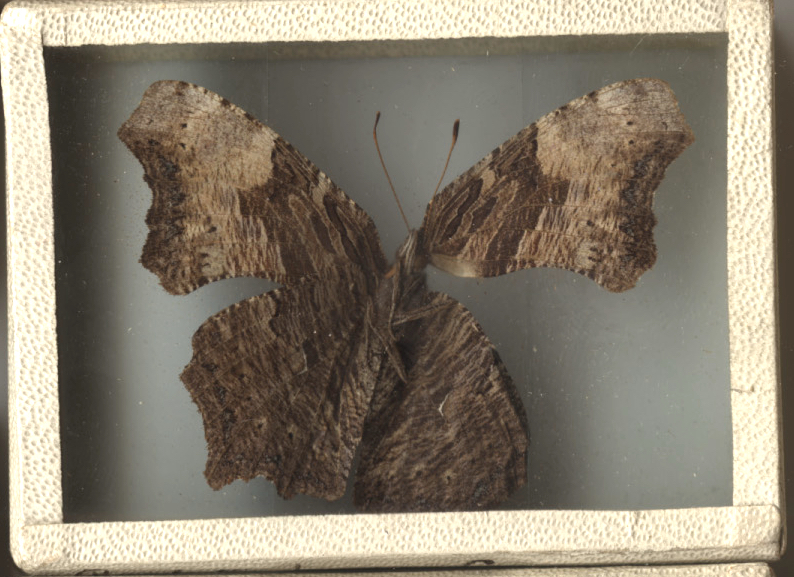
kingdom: Animalia
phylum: Arthropoda
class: Insecta
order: Lepidoptera
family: Nymphalidae
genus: Polygonia
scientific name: Polygonia progne
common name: Gray Comma
